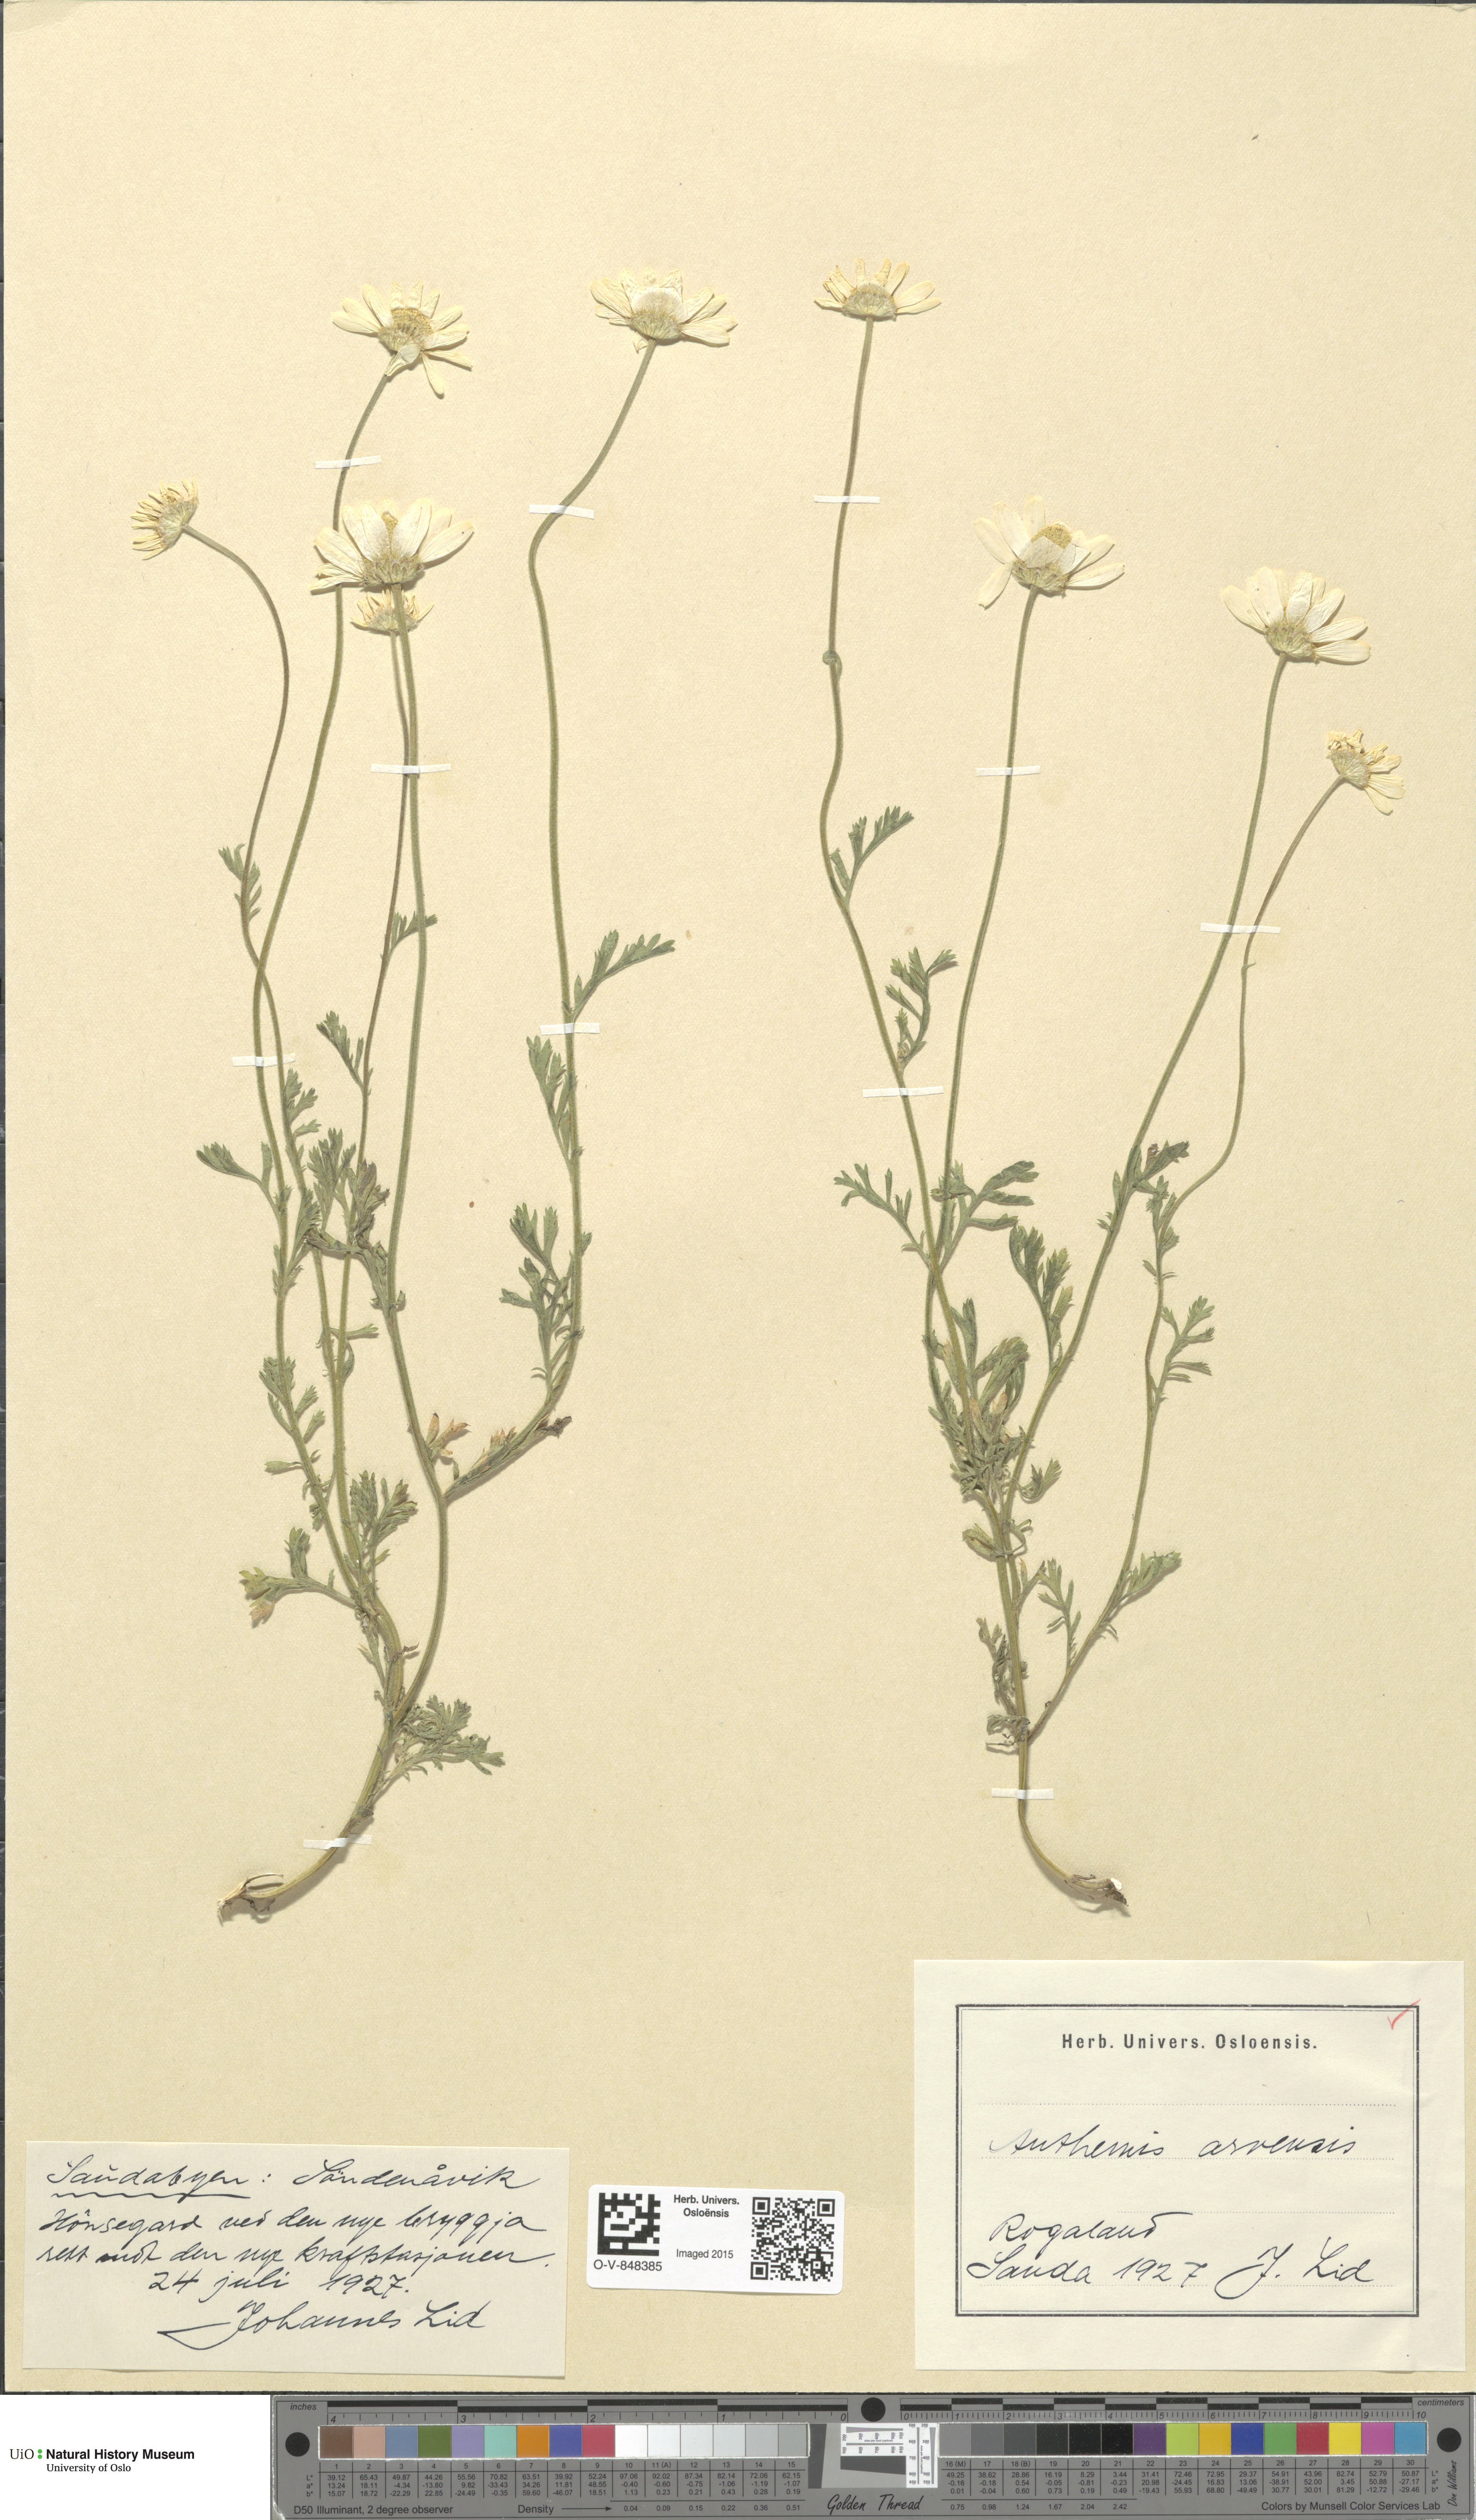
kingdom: Plantae
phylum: Tracheophyta
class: Magnoliopsida
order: Asterales
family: Asteraceae
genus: Anthemis
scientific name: Anthemis arvensis
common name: Corn chamomile
